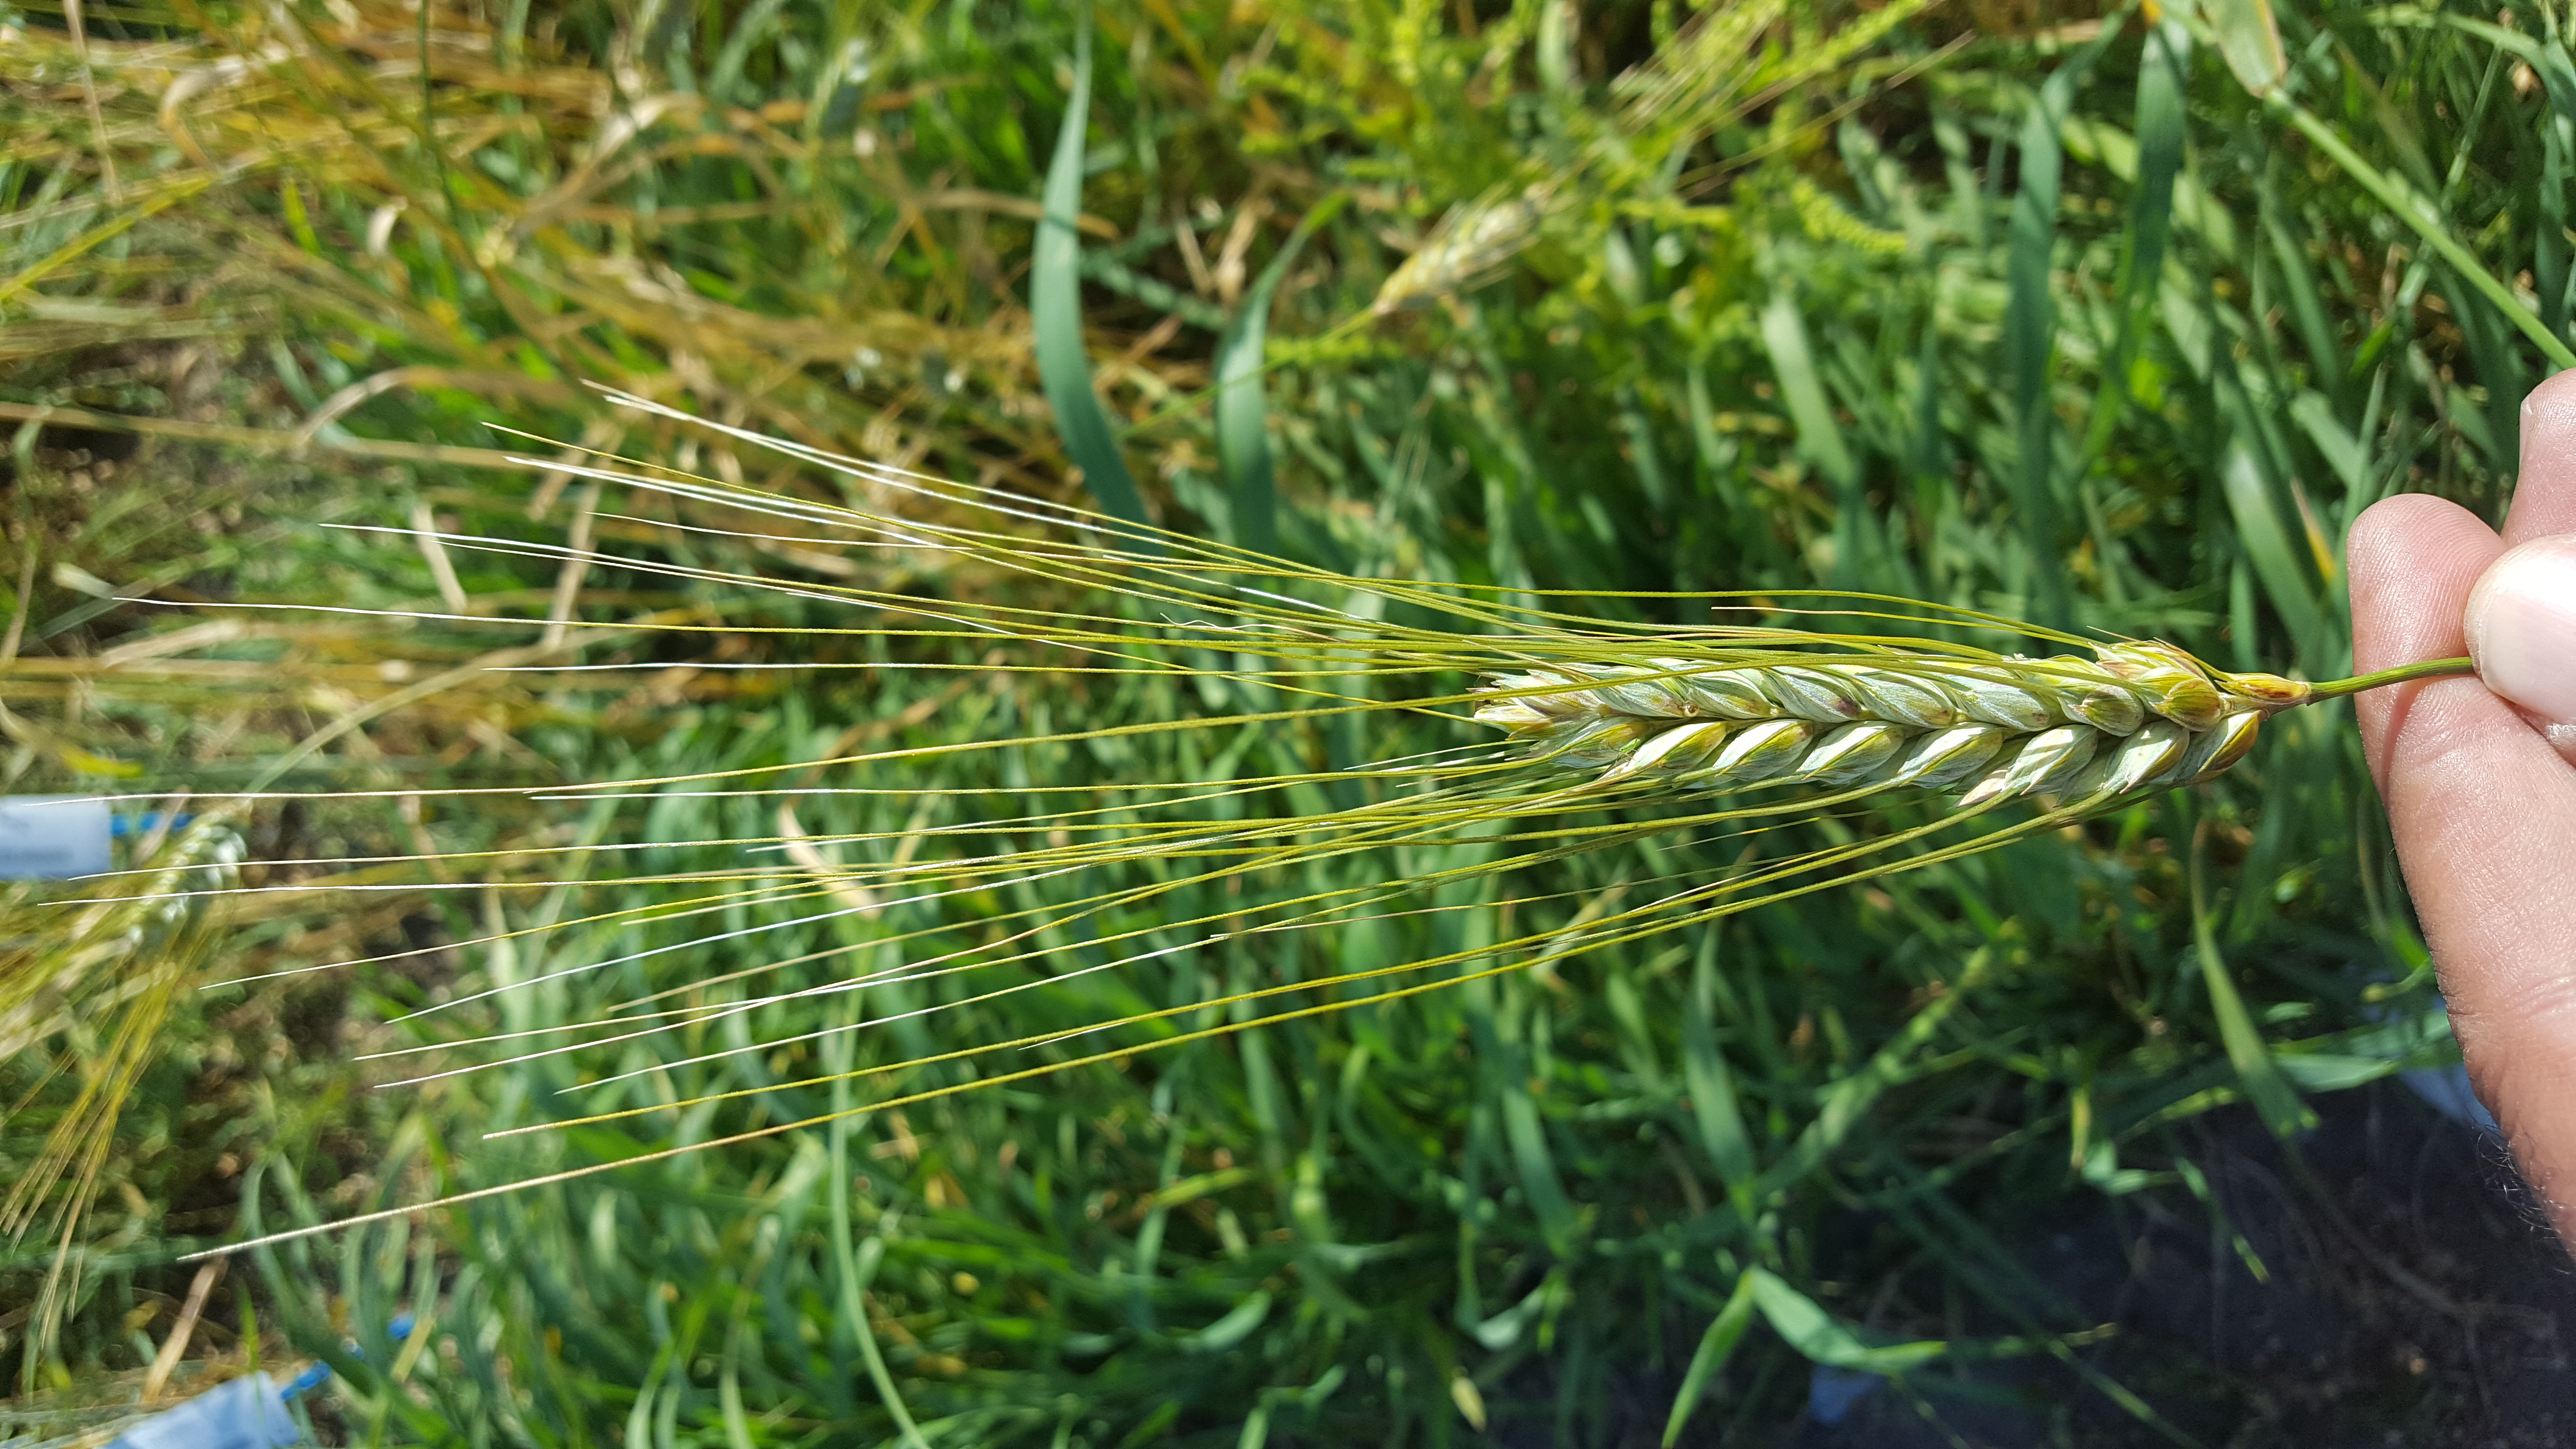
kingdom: Plantae
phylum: Tracheophyta
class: Liliopsida
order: Poales
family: Poaceae
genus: Triticum
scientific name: Triticum turgidum
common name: Rivet wheat
